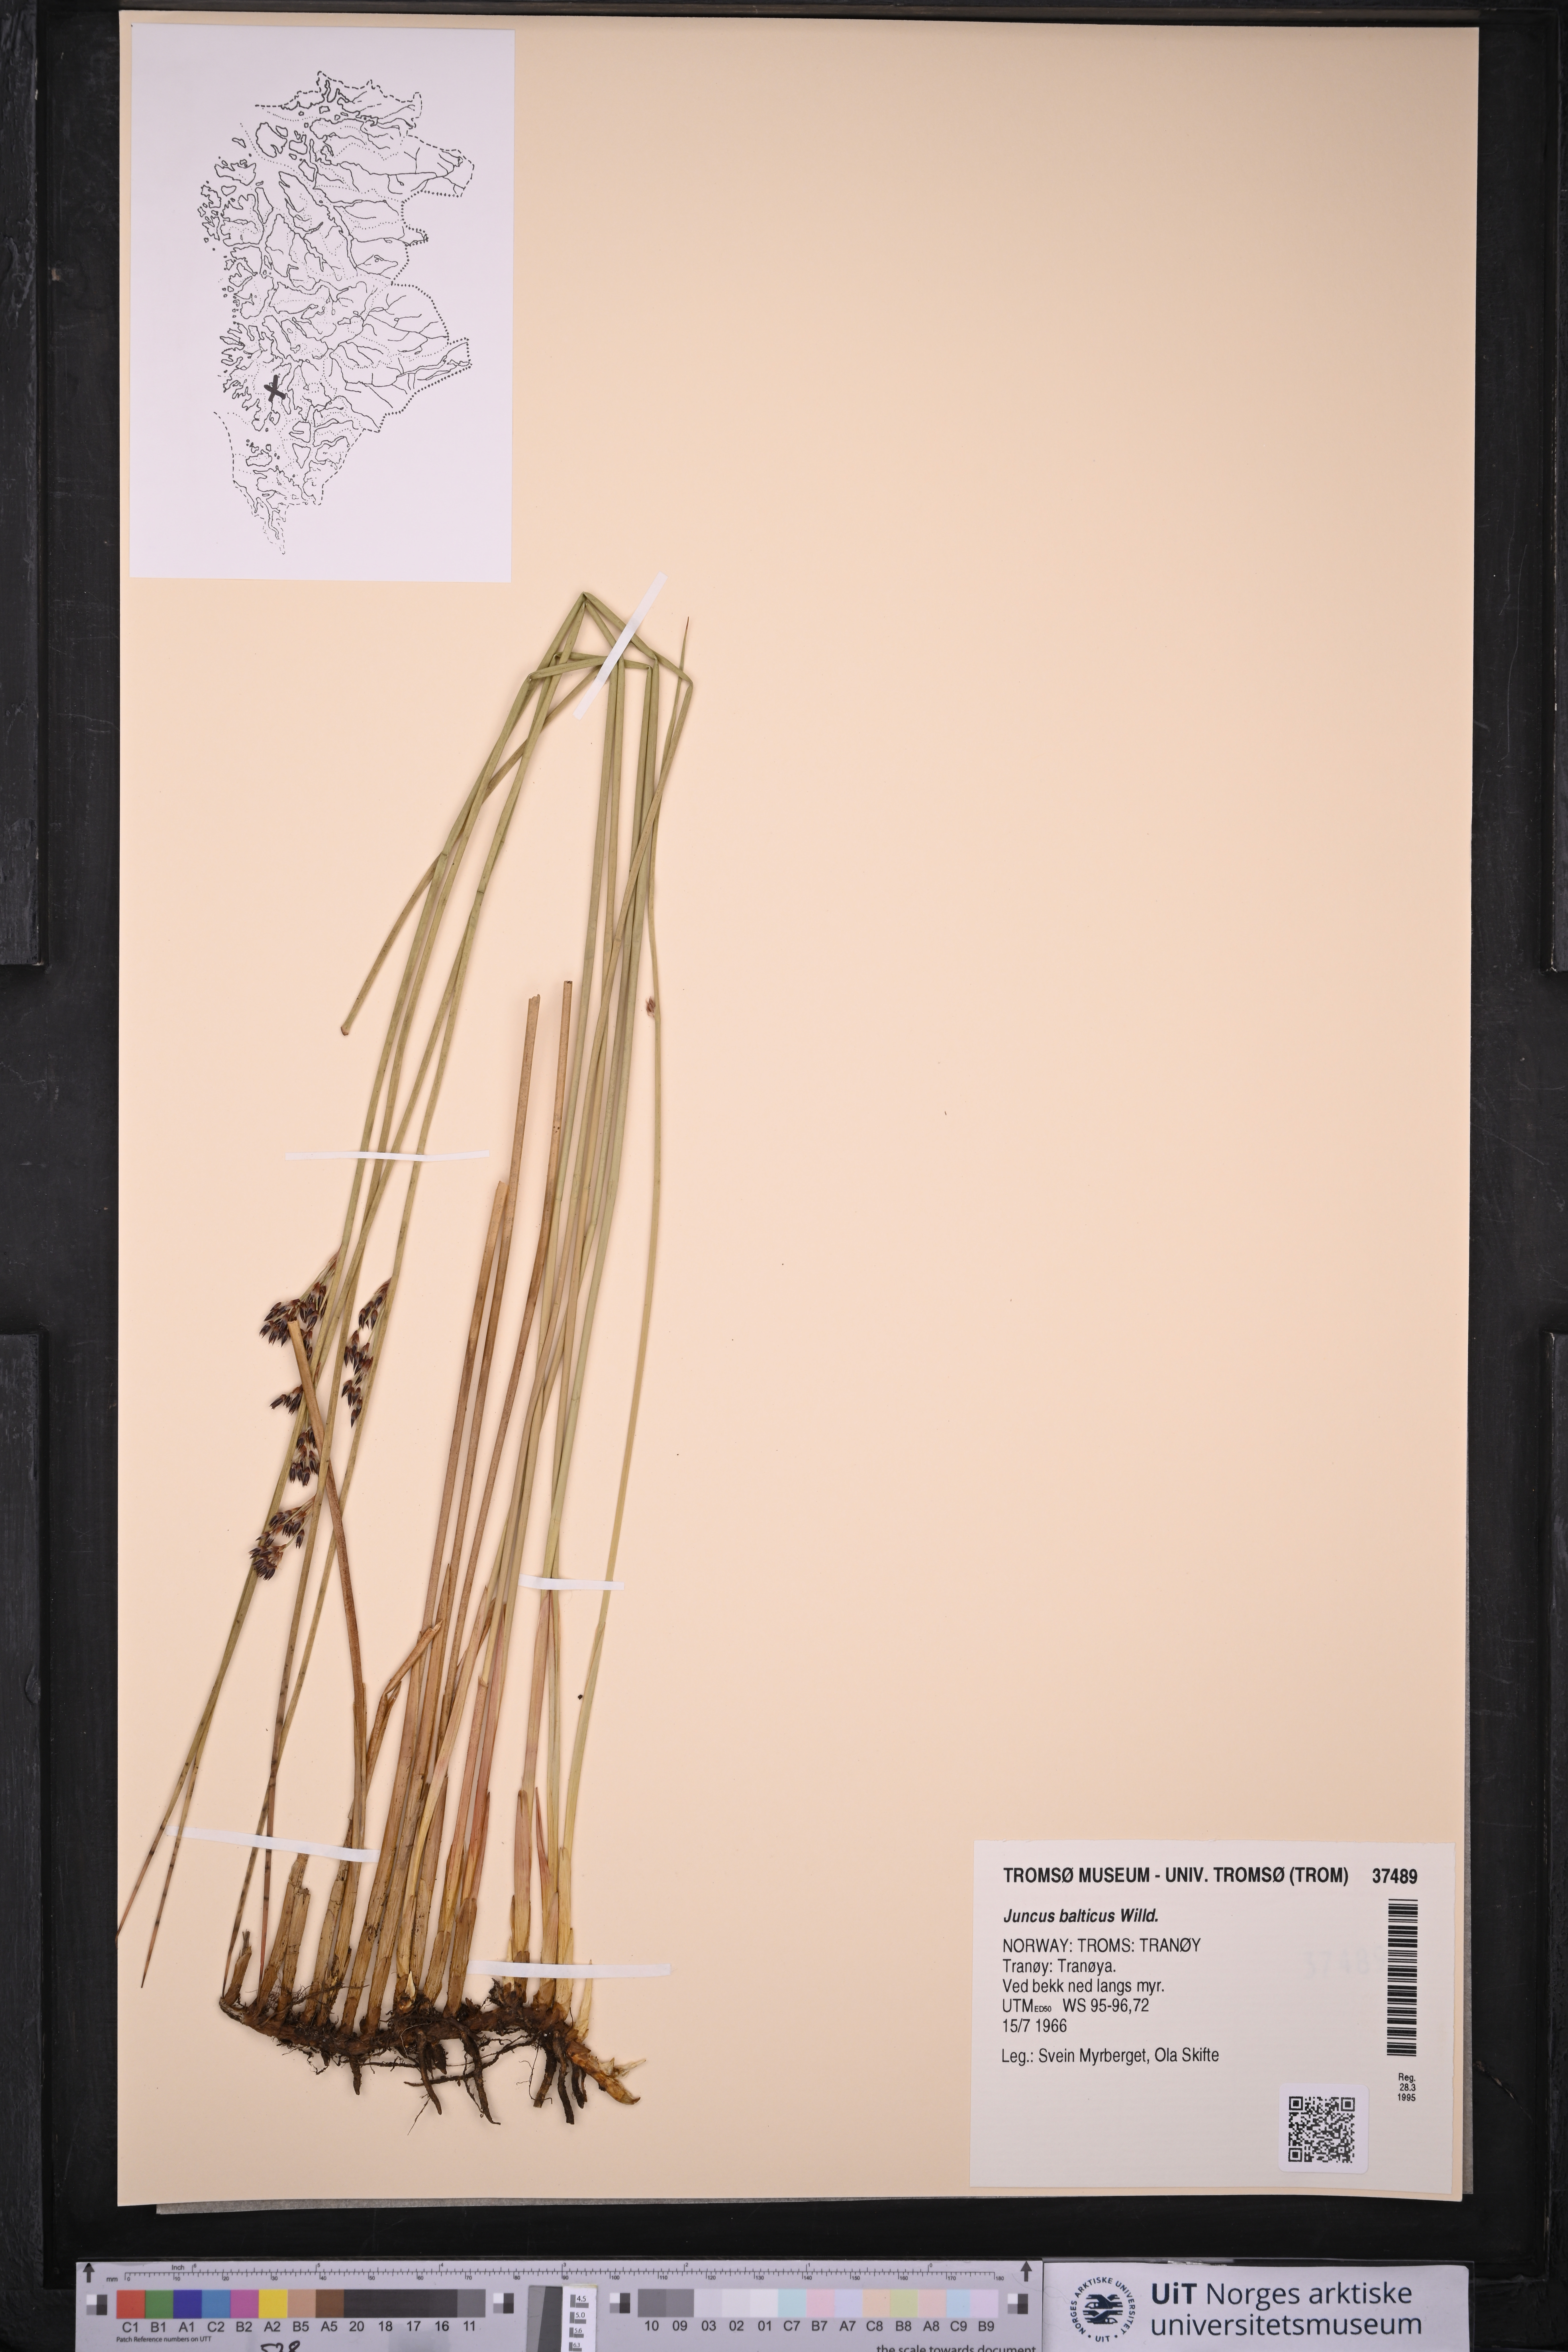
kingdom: Plantae
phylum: Tracheophyta
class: Liliopsida
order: Poales
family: Juncaceae
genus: Juncus
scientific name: Juncus balticus
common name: Baltic rush
